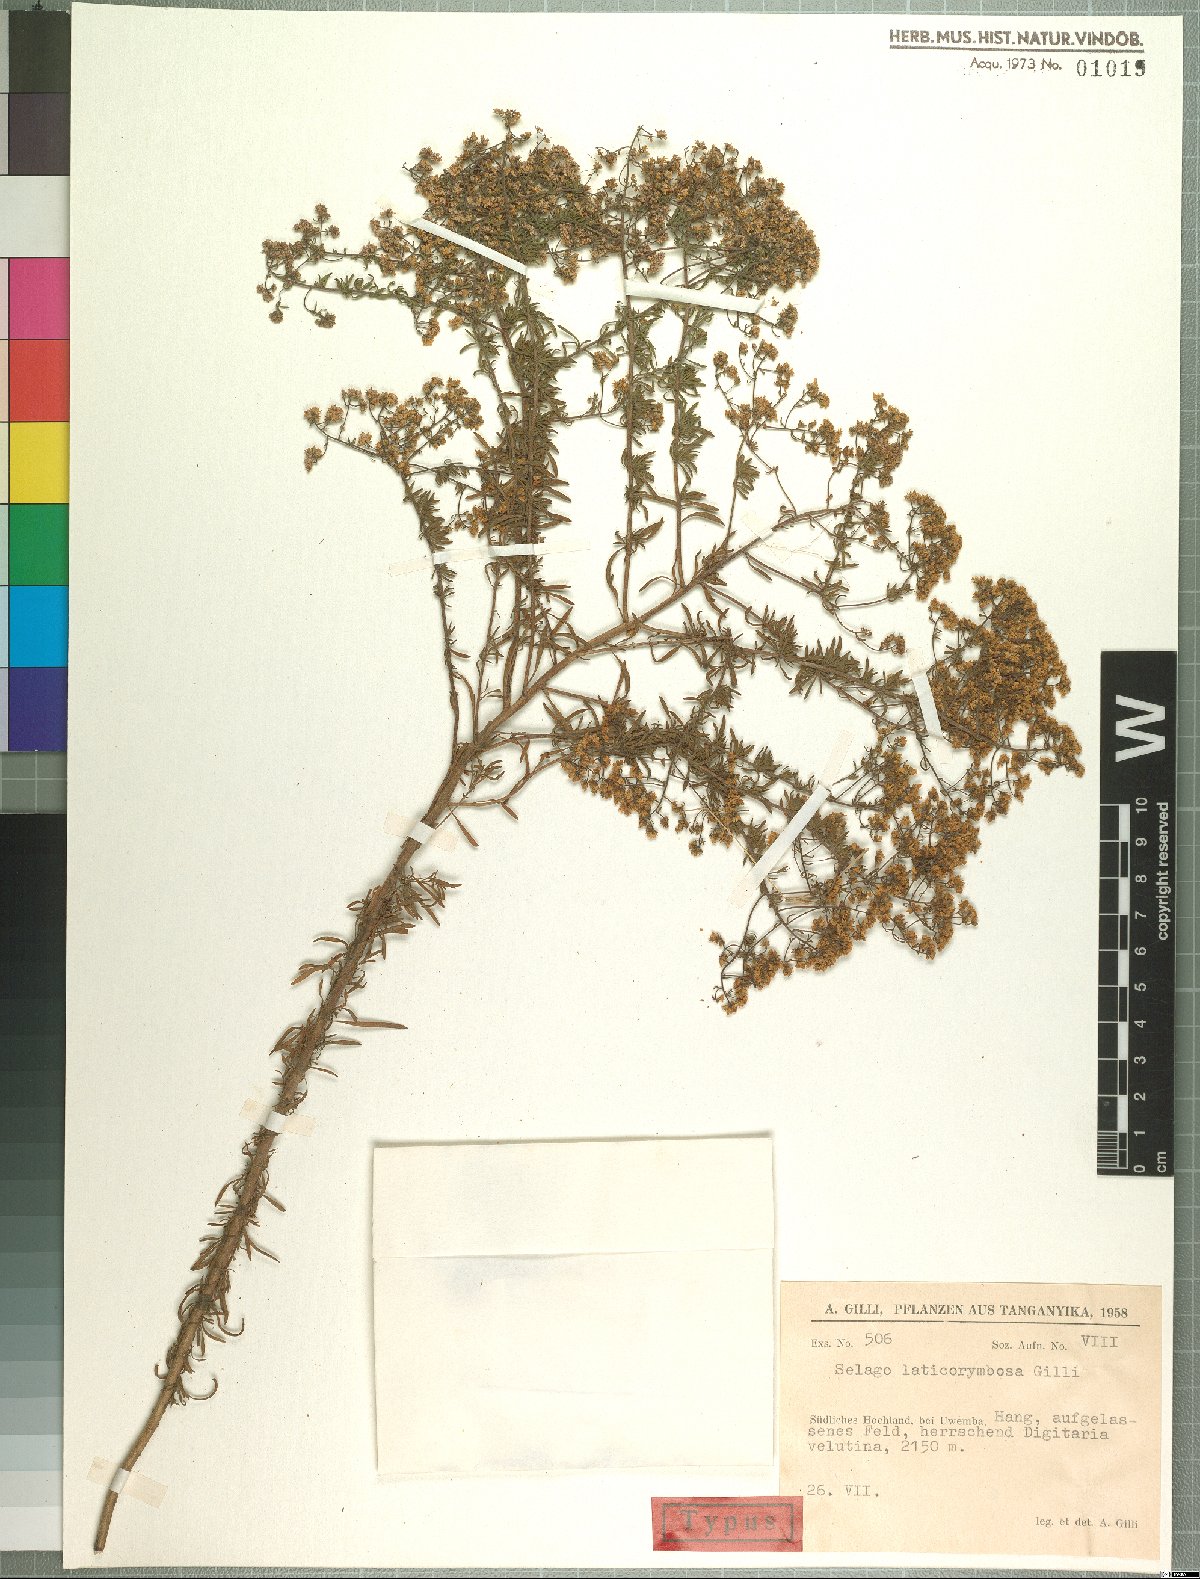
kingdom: Plantae
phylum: Tracheophyta
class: Magnoliopsida
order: Lamiales
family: Scrophulariaceae
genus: Selago
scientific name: Selago viscosa
